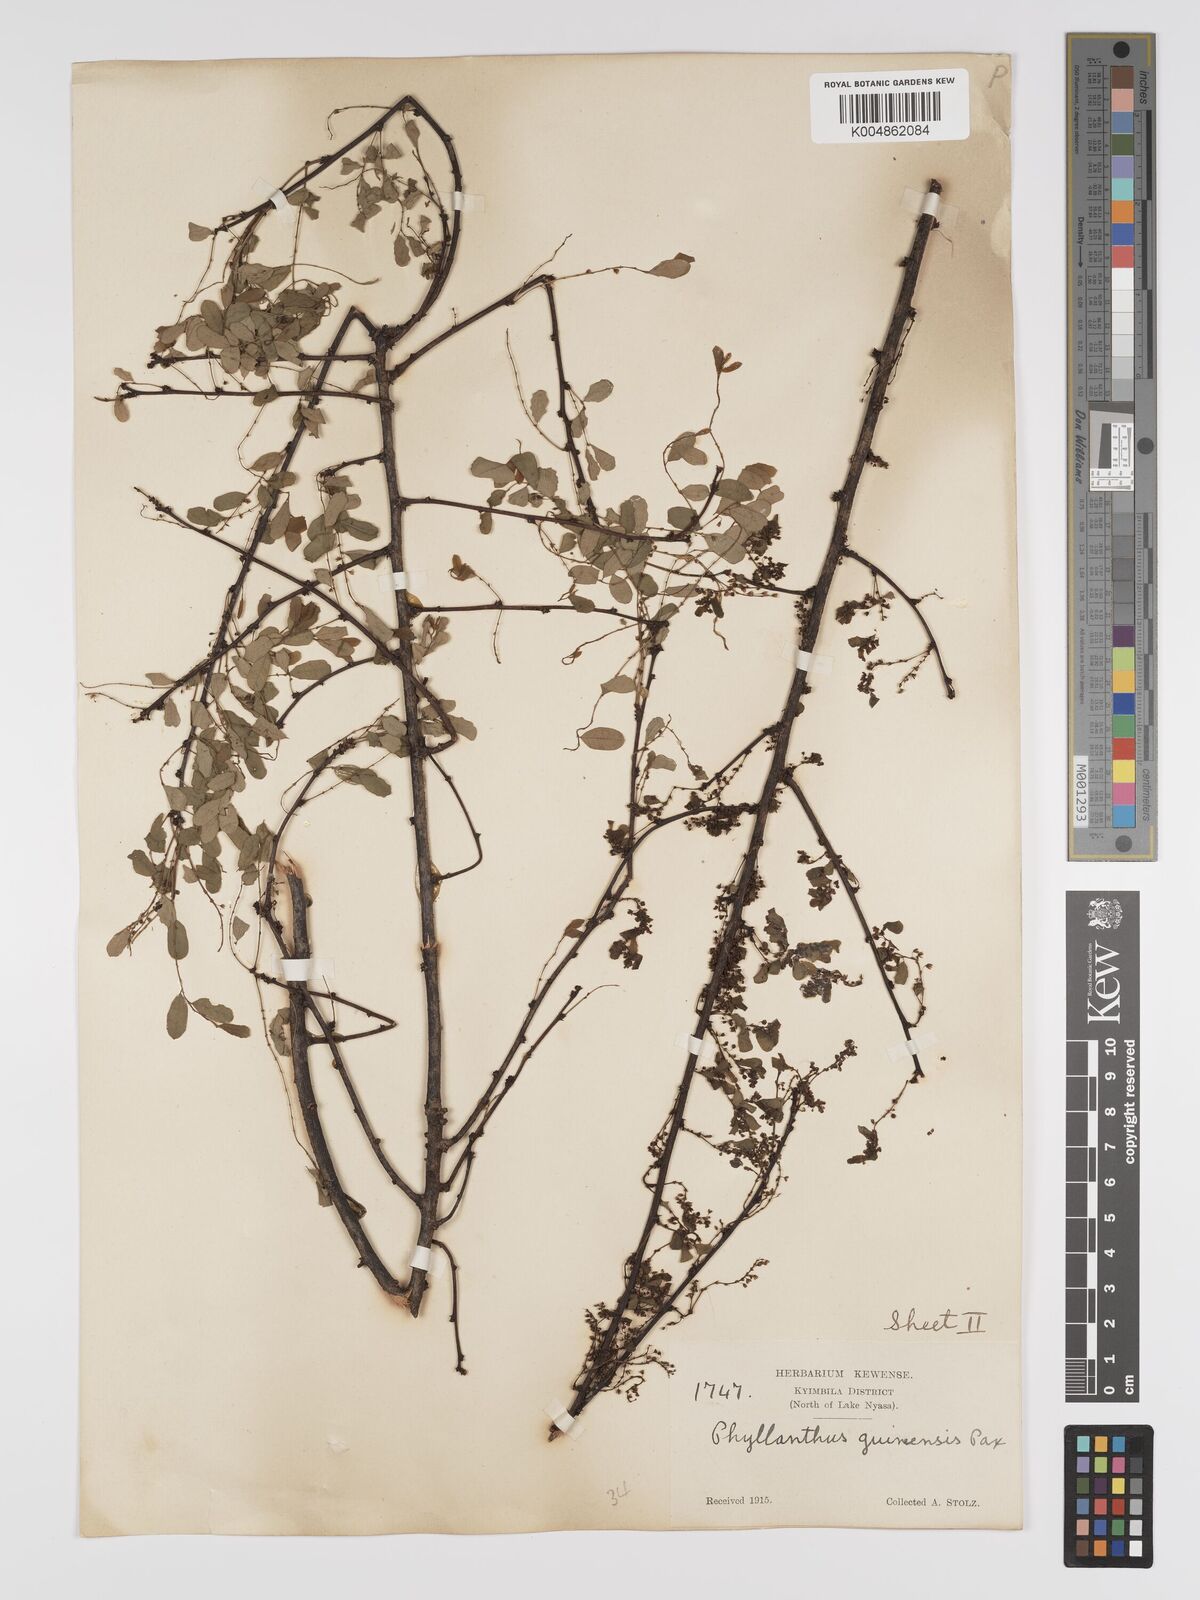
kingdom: Plantae
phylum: Tracheophyta
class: Magnoliopsida
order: Malpighiales
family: Phyllanthaceae
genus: Phyllanthus
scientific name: Phyllanthus ovalifolius
